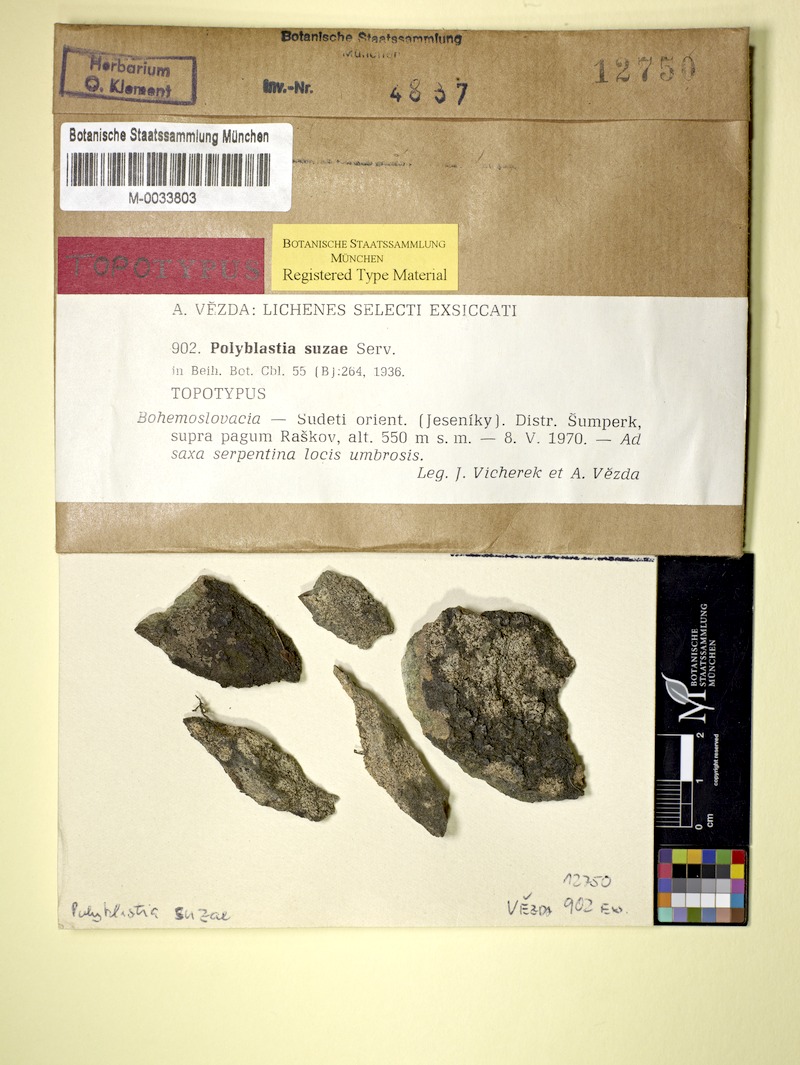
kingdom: Fungi
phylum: Ascomycota
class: Eurotiomycetes
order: Verrucariales
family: Verrucariaceae
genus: Polyblastia
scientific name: Polyblastia
